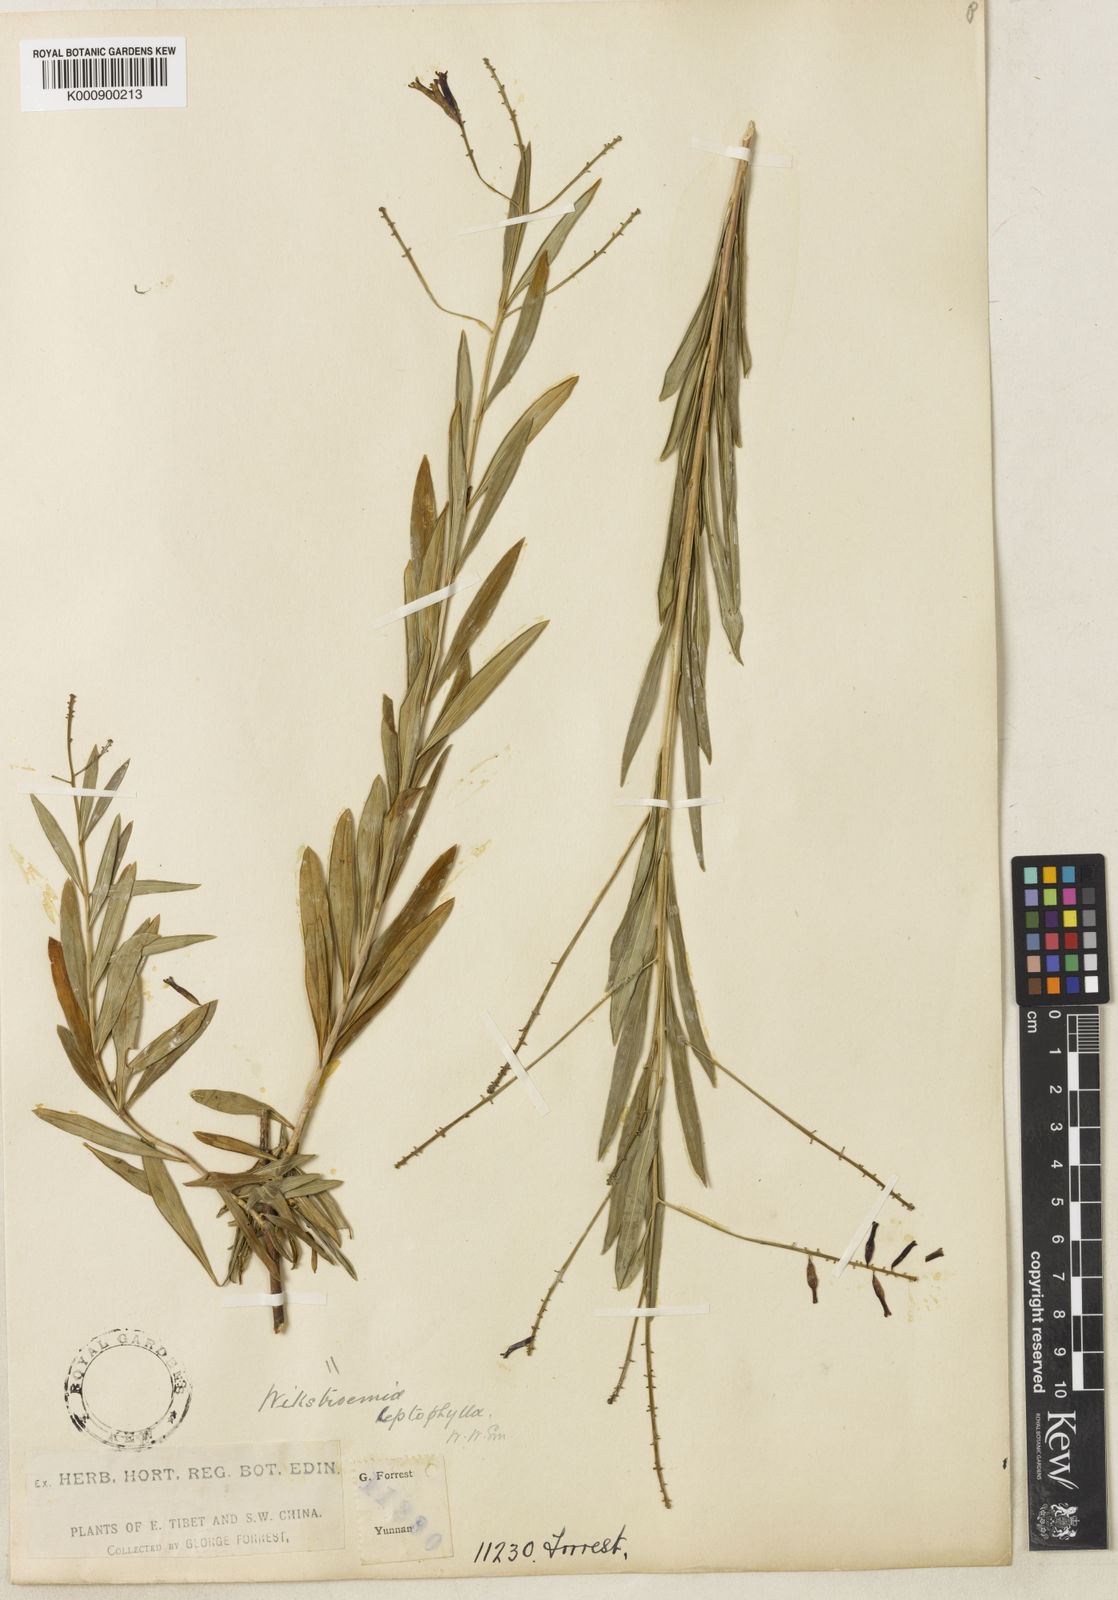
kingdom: Plantae
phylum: Tracheophyta
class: Magnoliopsida
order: Malvales
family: Thymelaeaceae
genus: Wikstroemia
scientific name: Wikstroemia leptophylla
